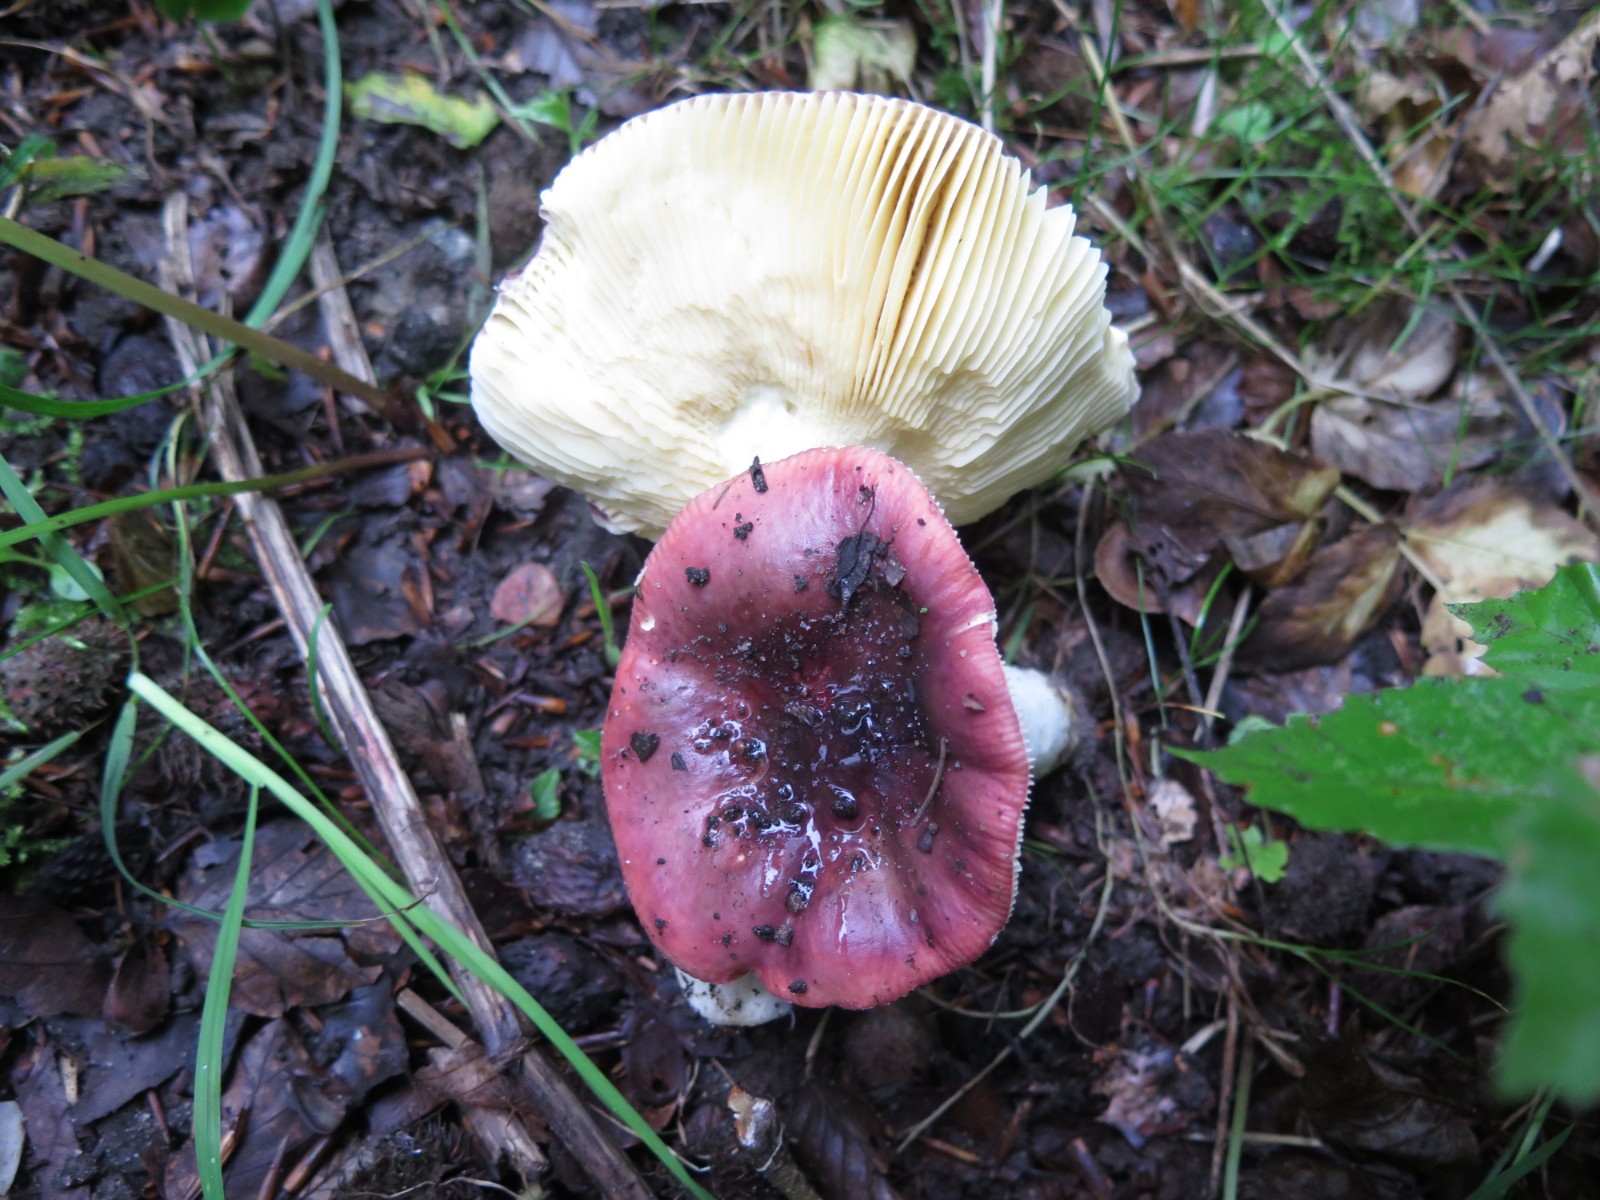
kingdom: Fungi
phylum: Basidiomycota
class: Agaricomycetes
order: Russulales
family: Russulaceae
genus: Russula
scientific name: Russula atropurpurea
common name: purpurbroget skørhat
